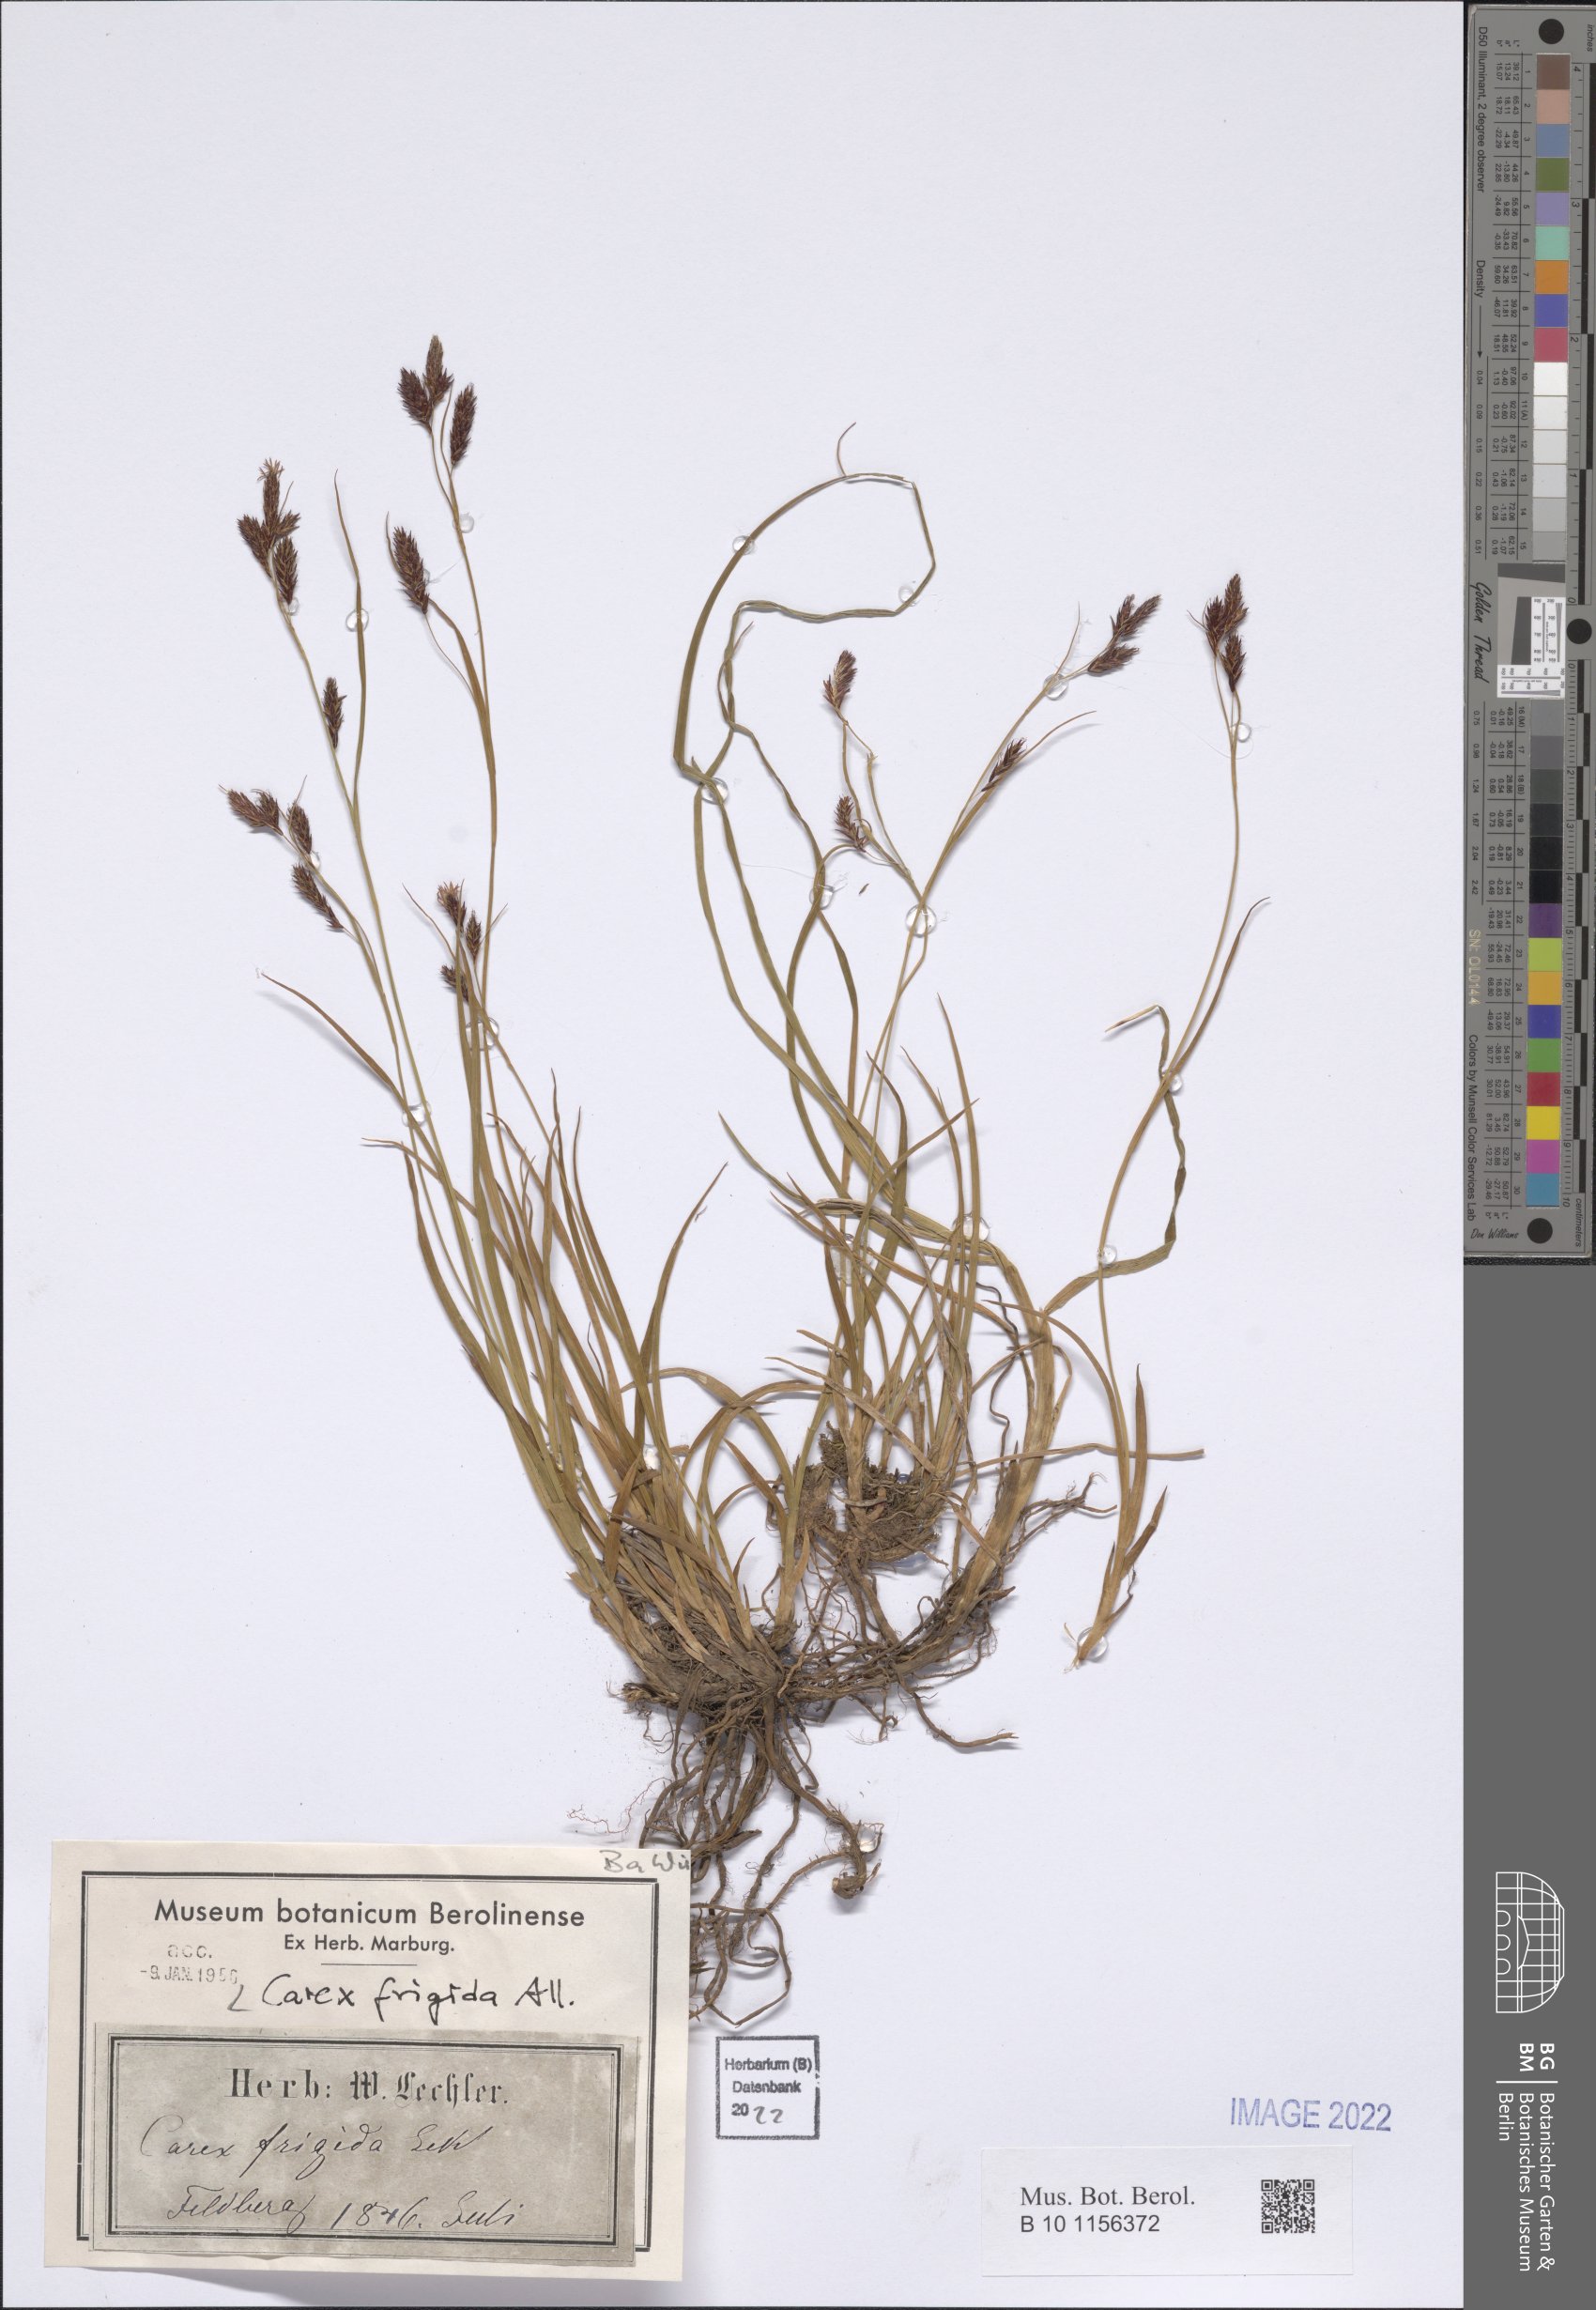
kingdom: Plantae
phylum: Tracheophyta
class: Liliopsida
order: Poales
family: Cyperaceae
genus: Carex
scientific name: Carex frigida
